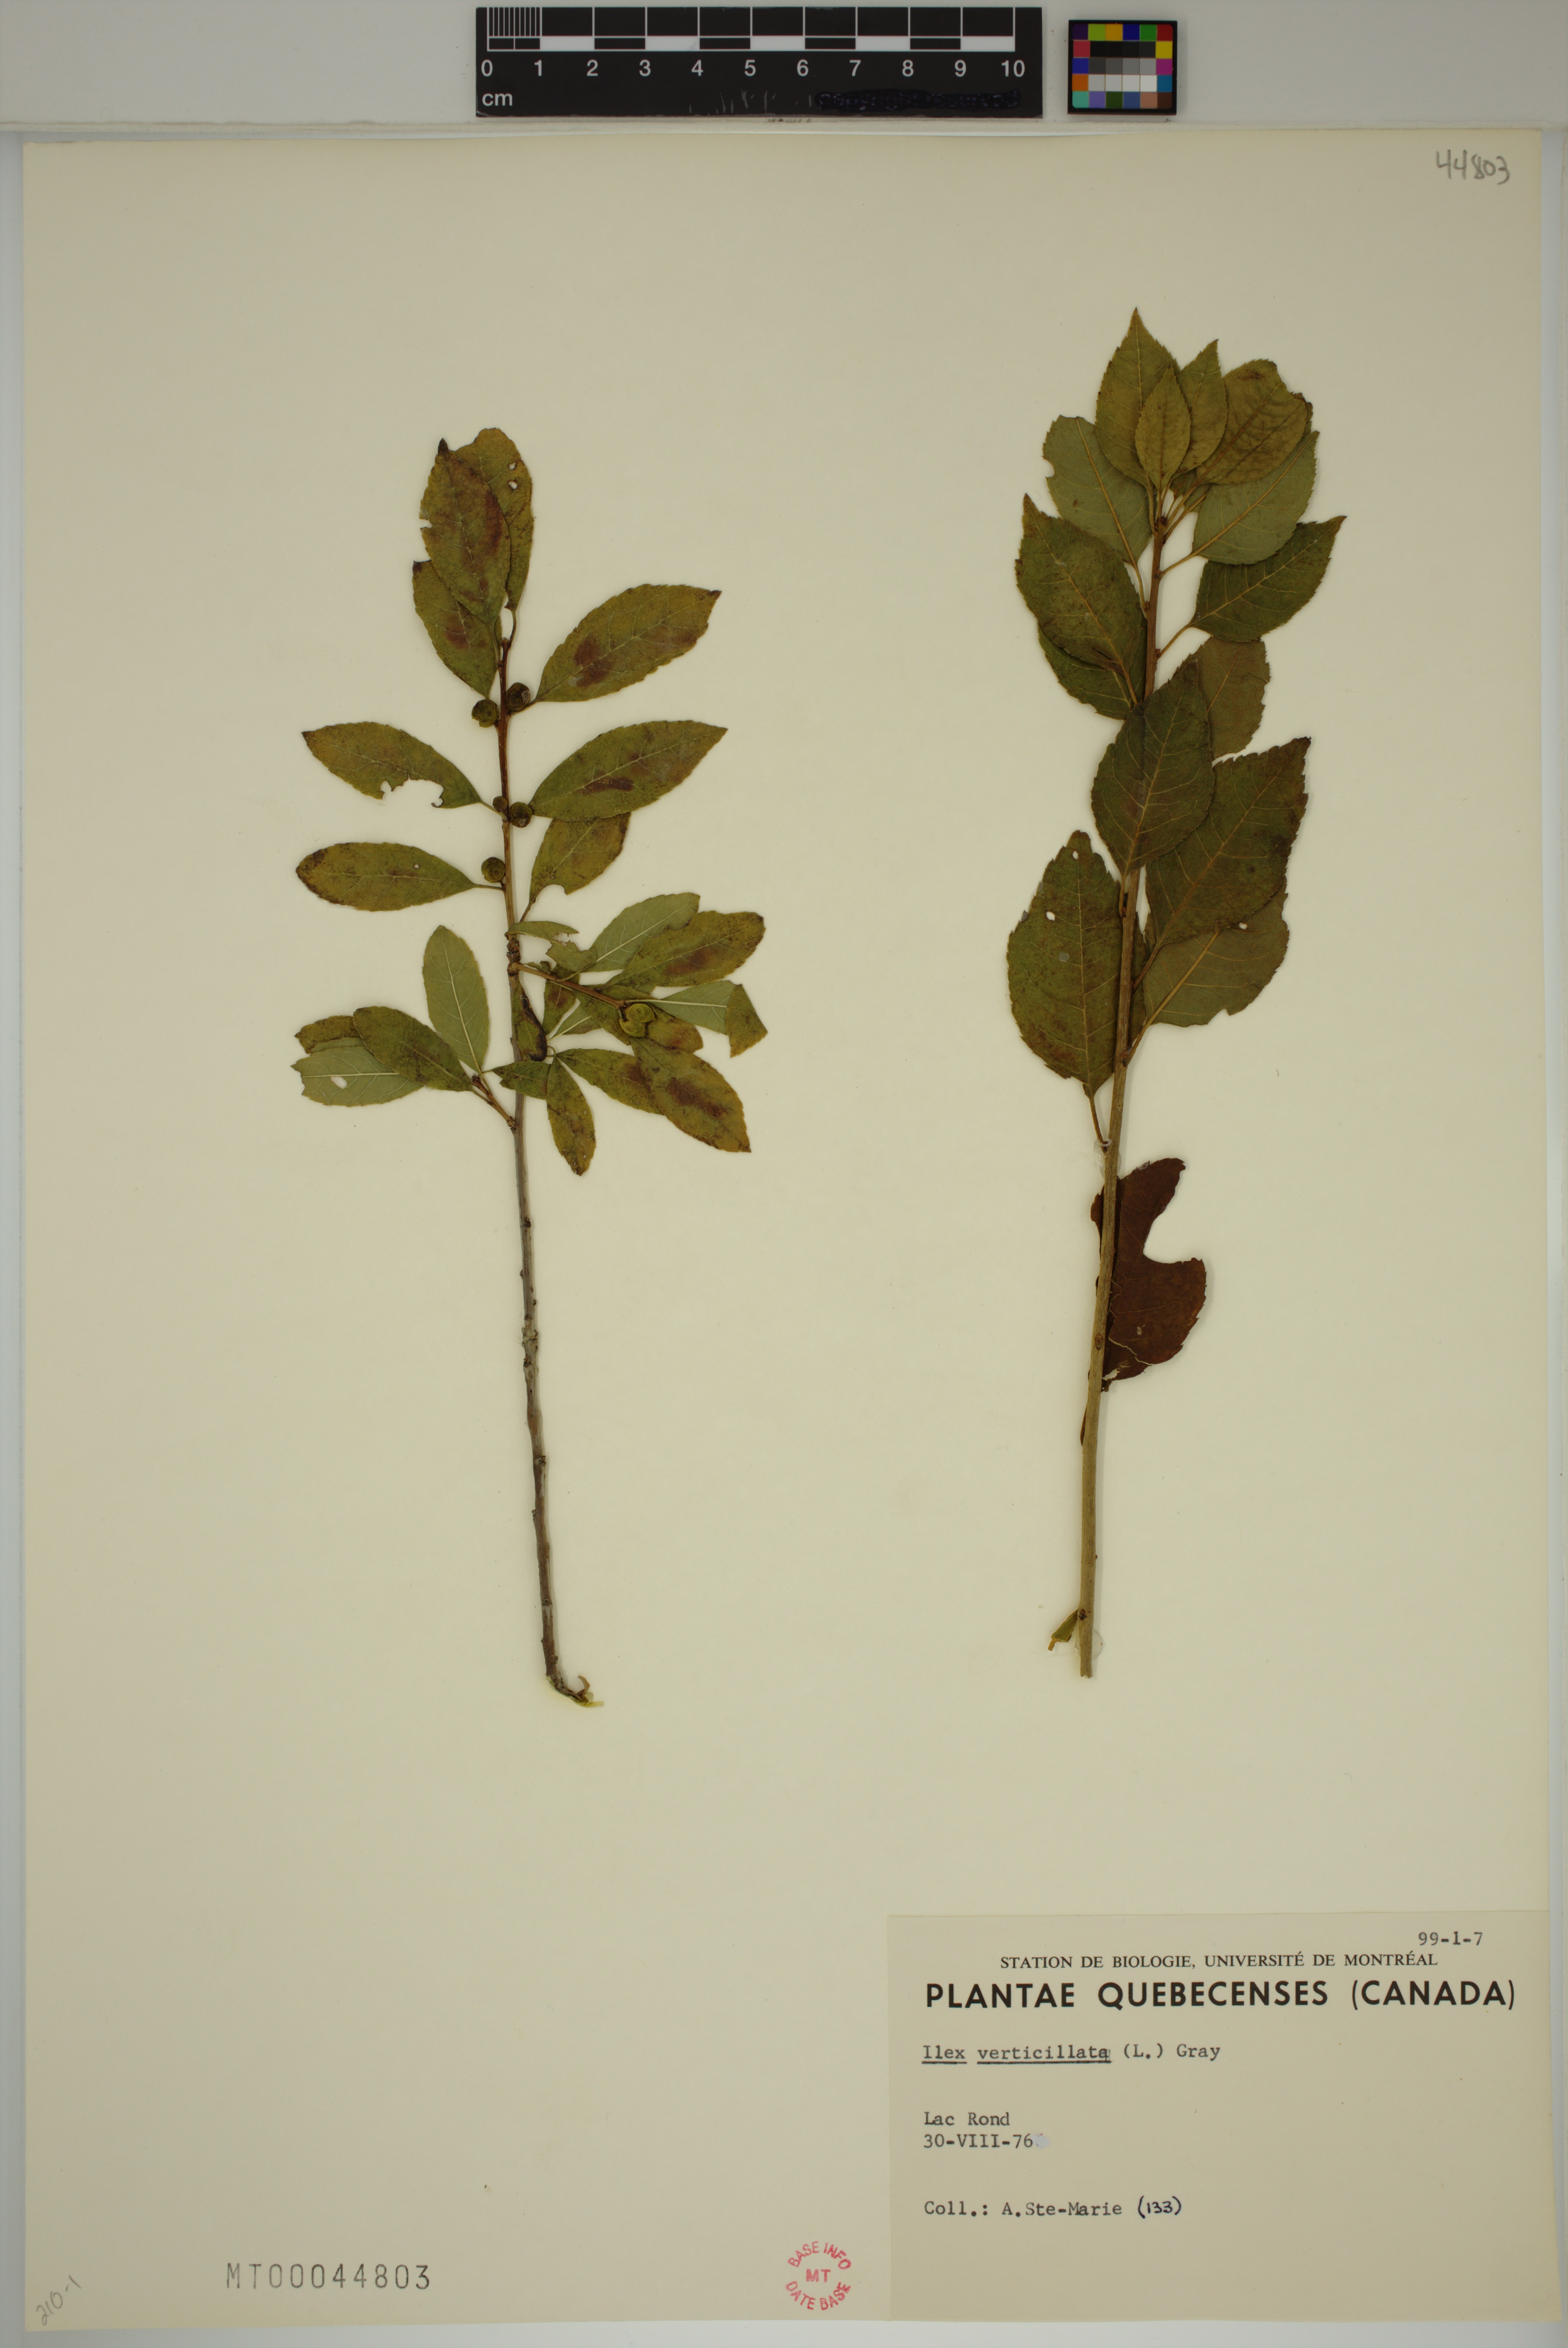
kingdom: Plantae
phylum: Tracheophyta
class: Magnoliopsida
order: Aquifoliales
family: Aquifoliaceae
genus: Ilex
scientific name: Ilex verticillata
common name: Virginia winterberry
